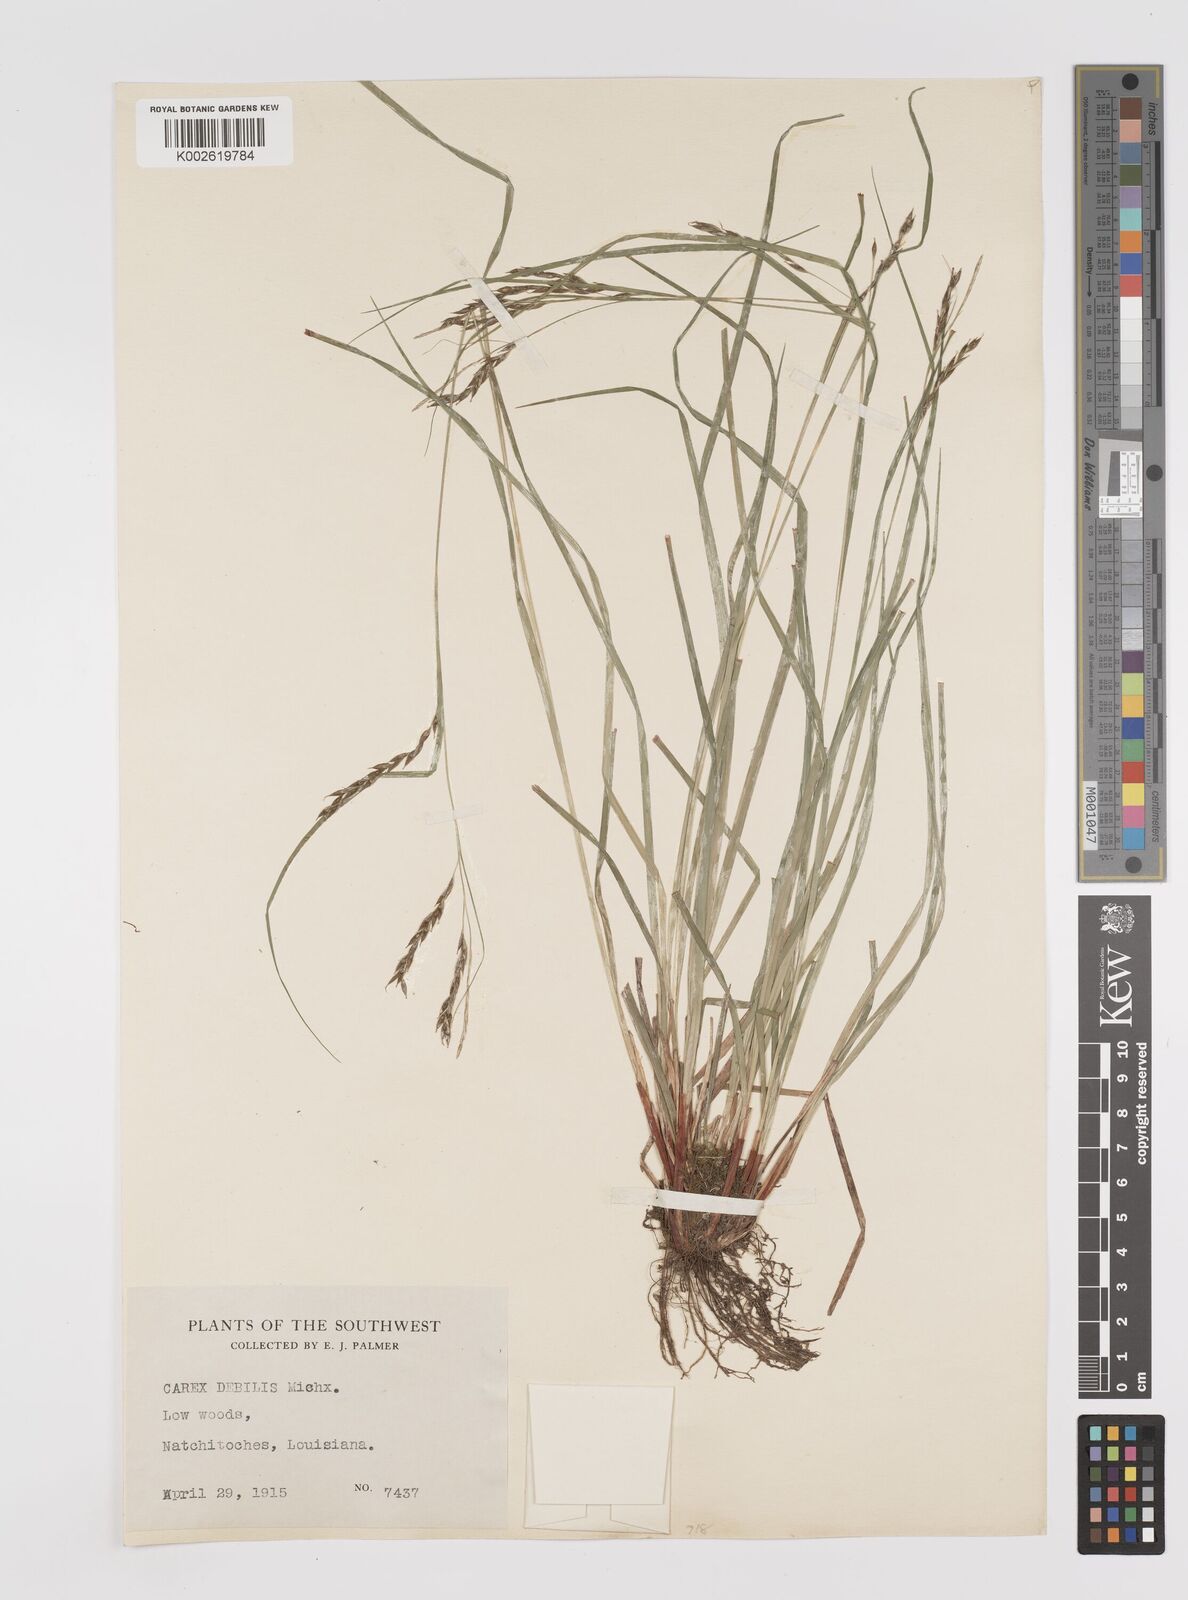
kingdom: Plantae
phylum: Tracheophyta
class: Liliopsida
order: Poales
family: Cyperaceae
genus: Carex
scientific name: Carex debilis
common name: White-edge sedge
